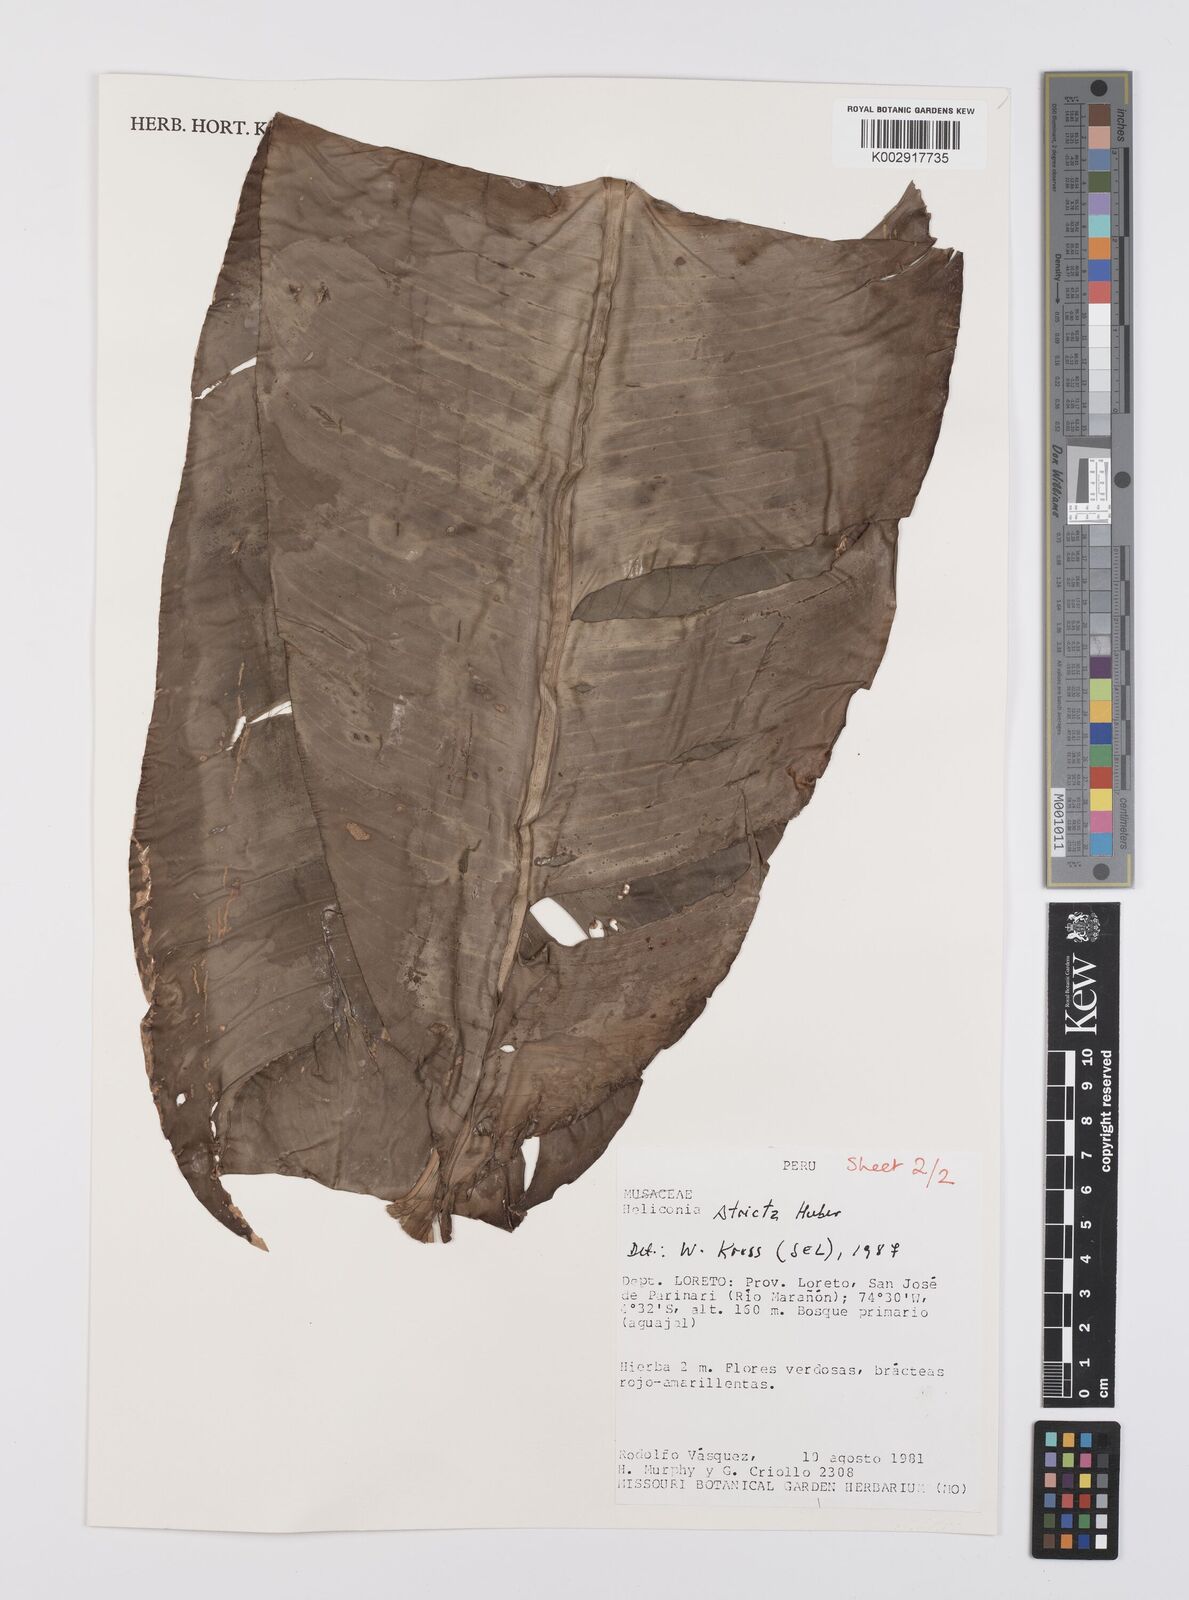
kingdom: Plantae
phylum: Tracheophyta
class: Liliopsida
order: Zingiberales
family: Heliconiaceae
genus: Heliconia
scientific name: Heliconia stricta
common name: Small lobster claw
